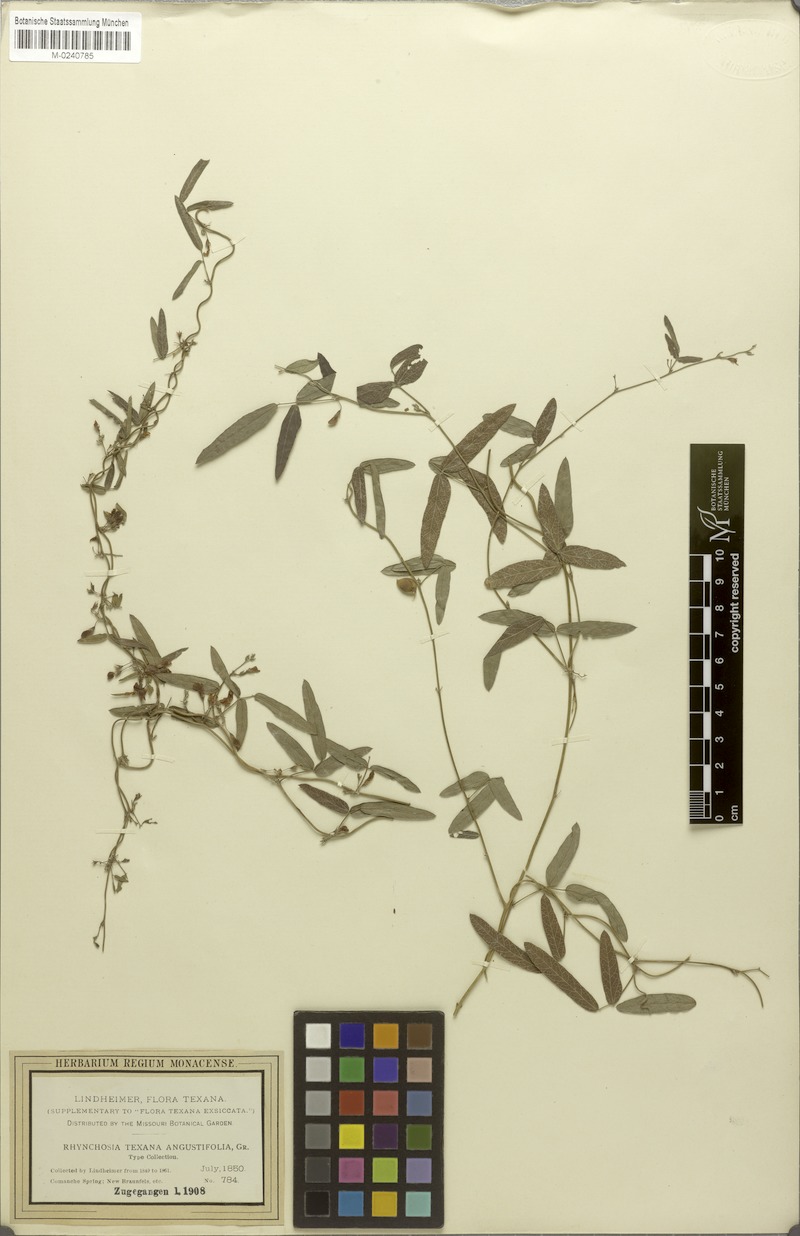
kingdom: Plantae
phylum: Tracheophyta
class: Magnoliopsida
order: Fabales
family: Fabaceae
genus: Rhynchosia
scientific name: Rhynchosia senna
